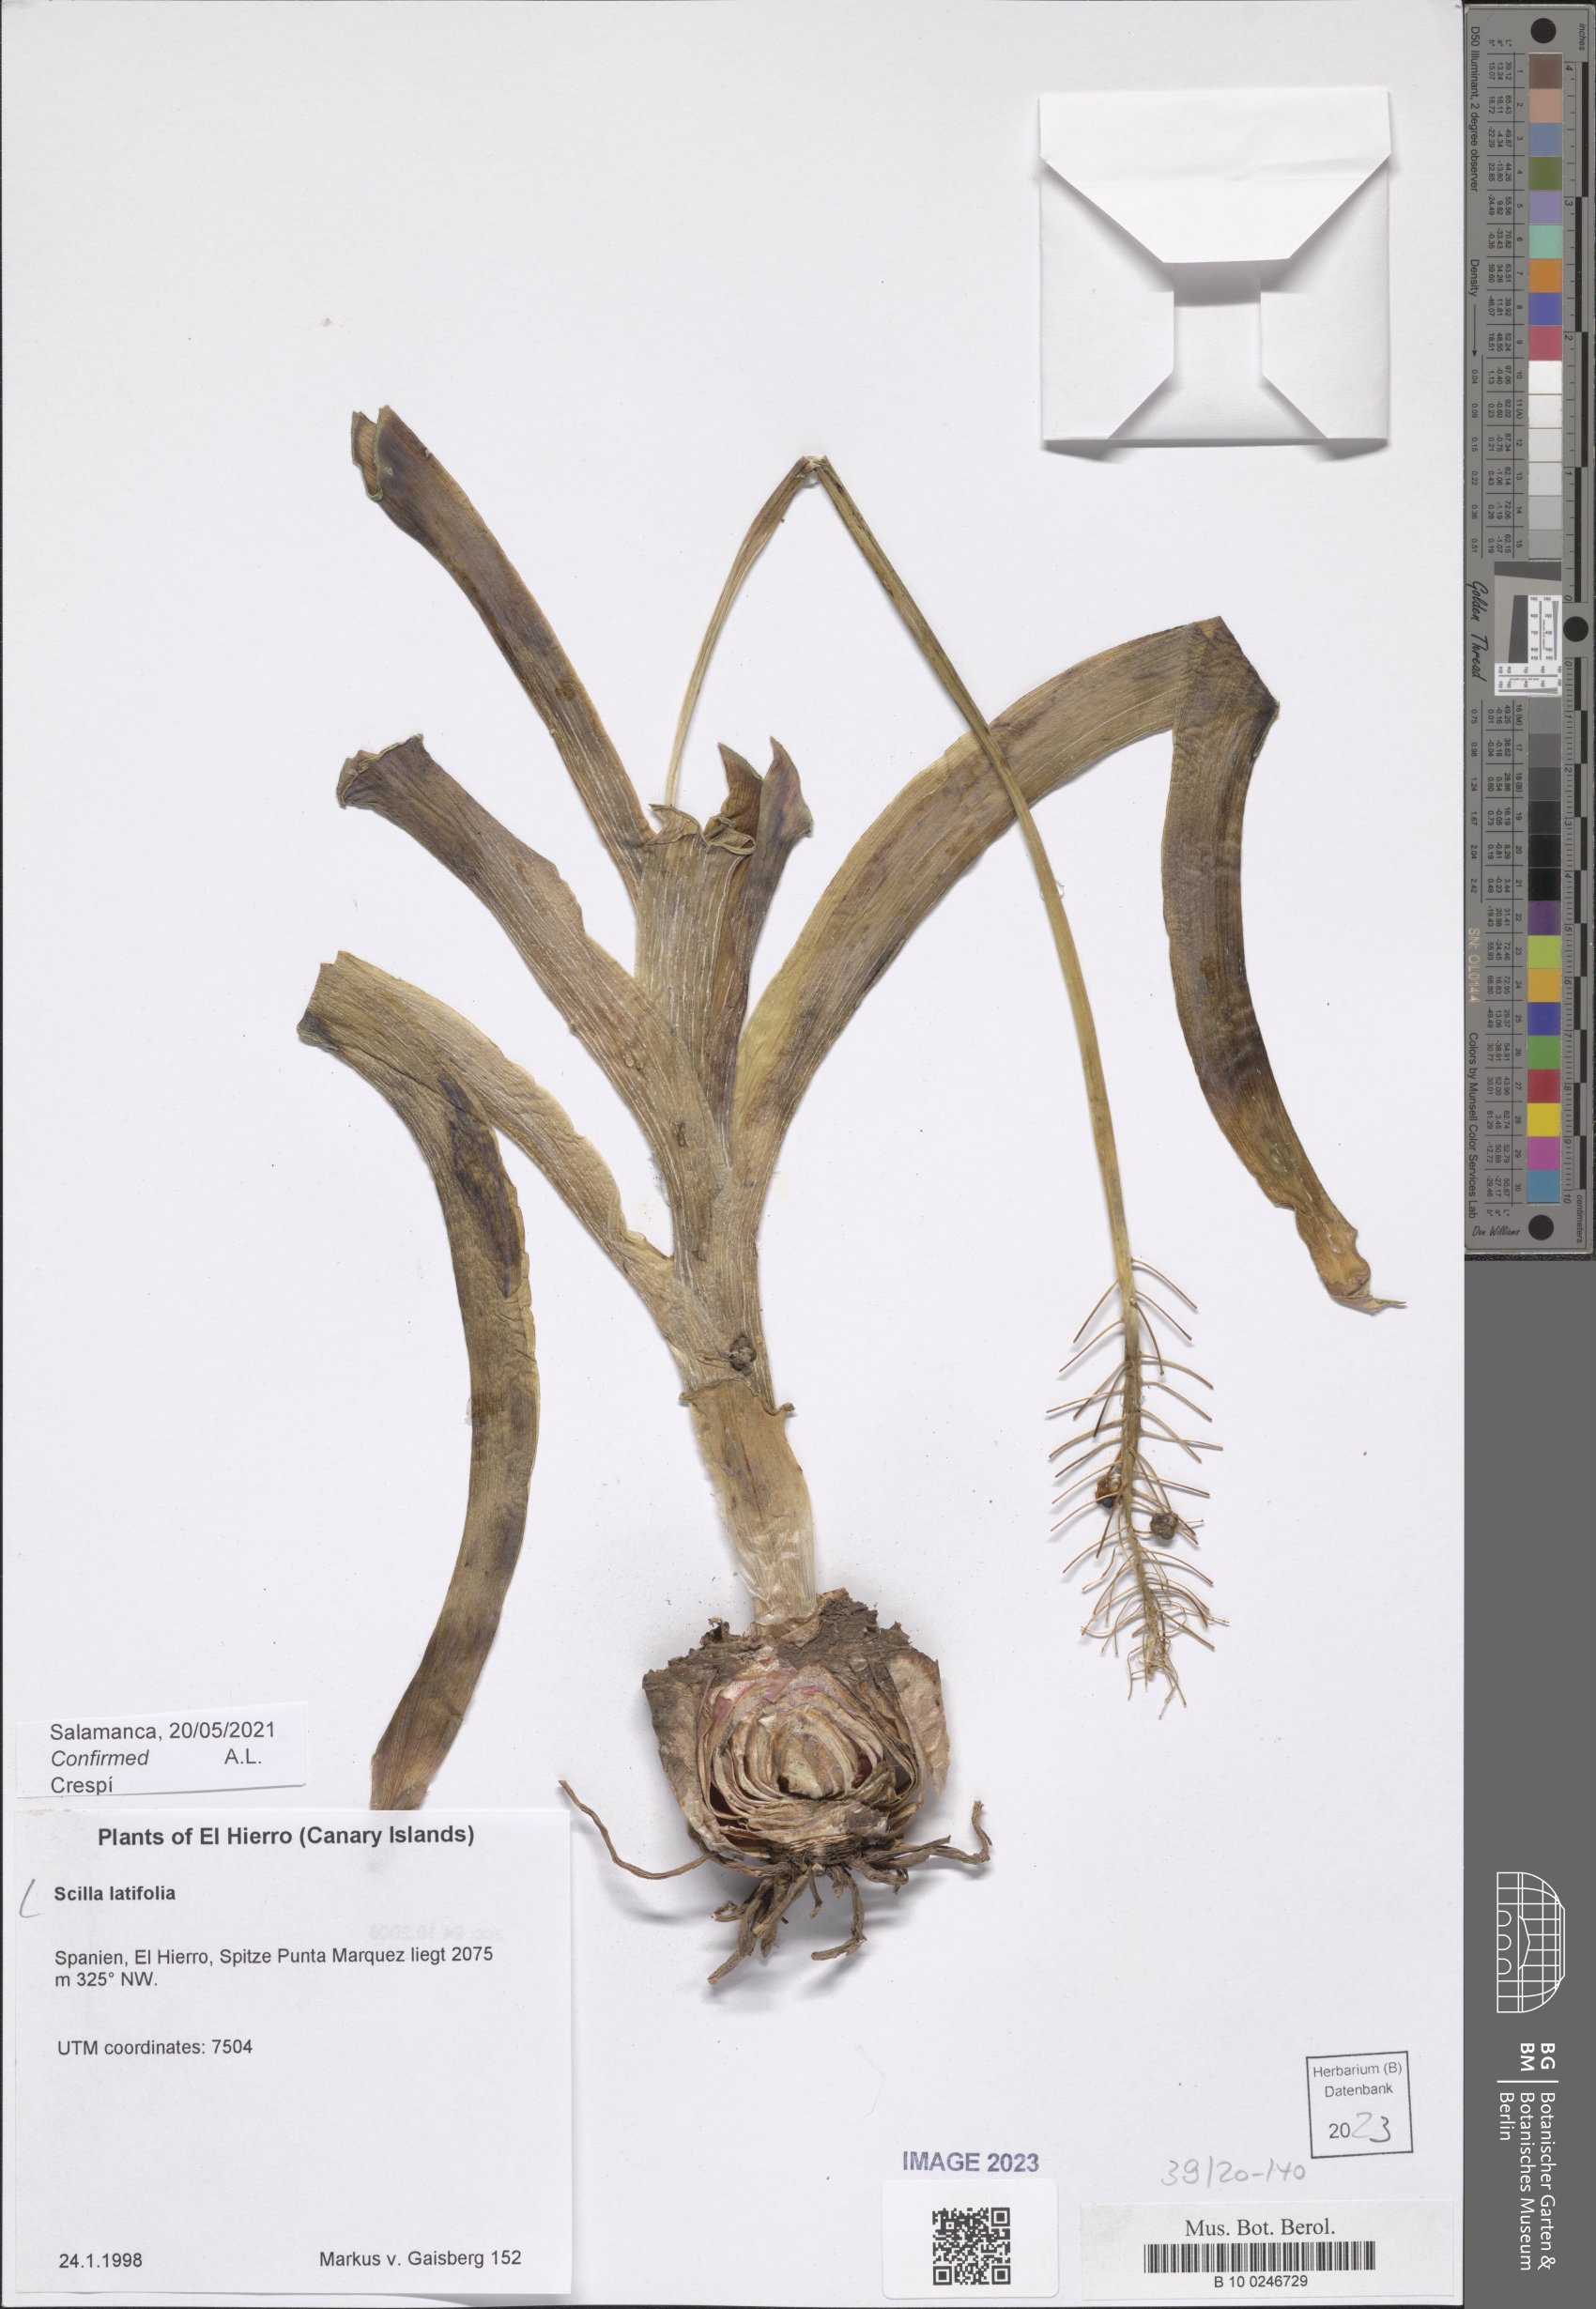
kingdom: Plantae
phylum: Tracheophyta
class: Liliopsida
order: Asparagales
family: Asparagaceae
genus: Scilla
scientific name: Scilla latifolia
